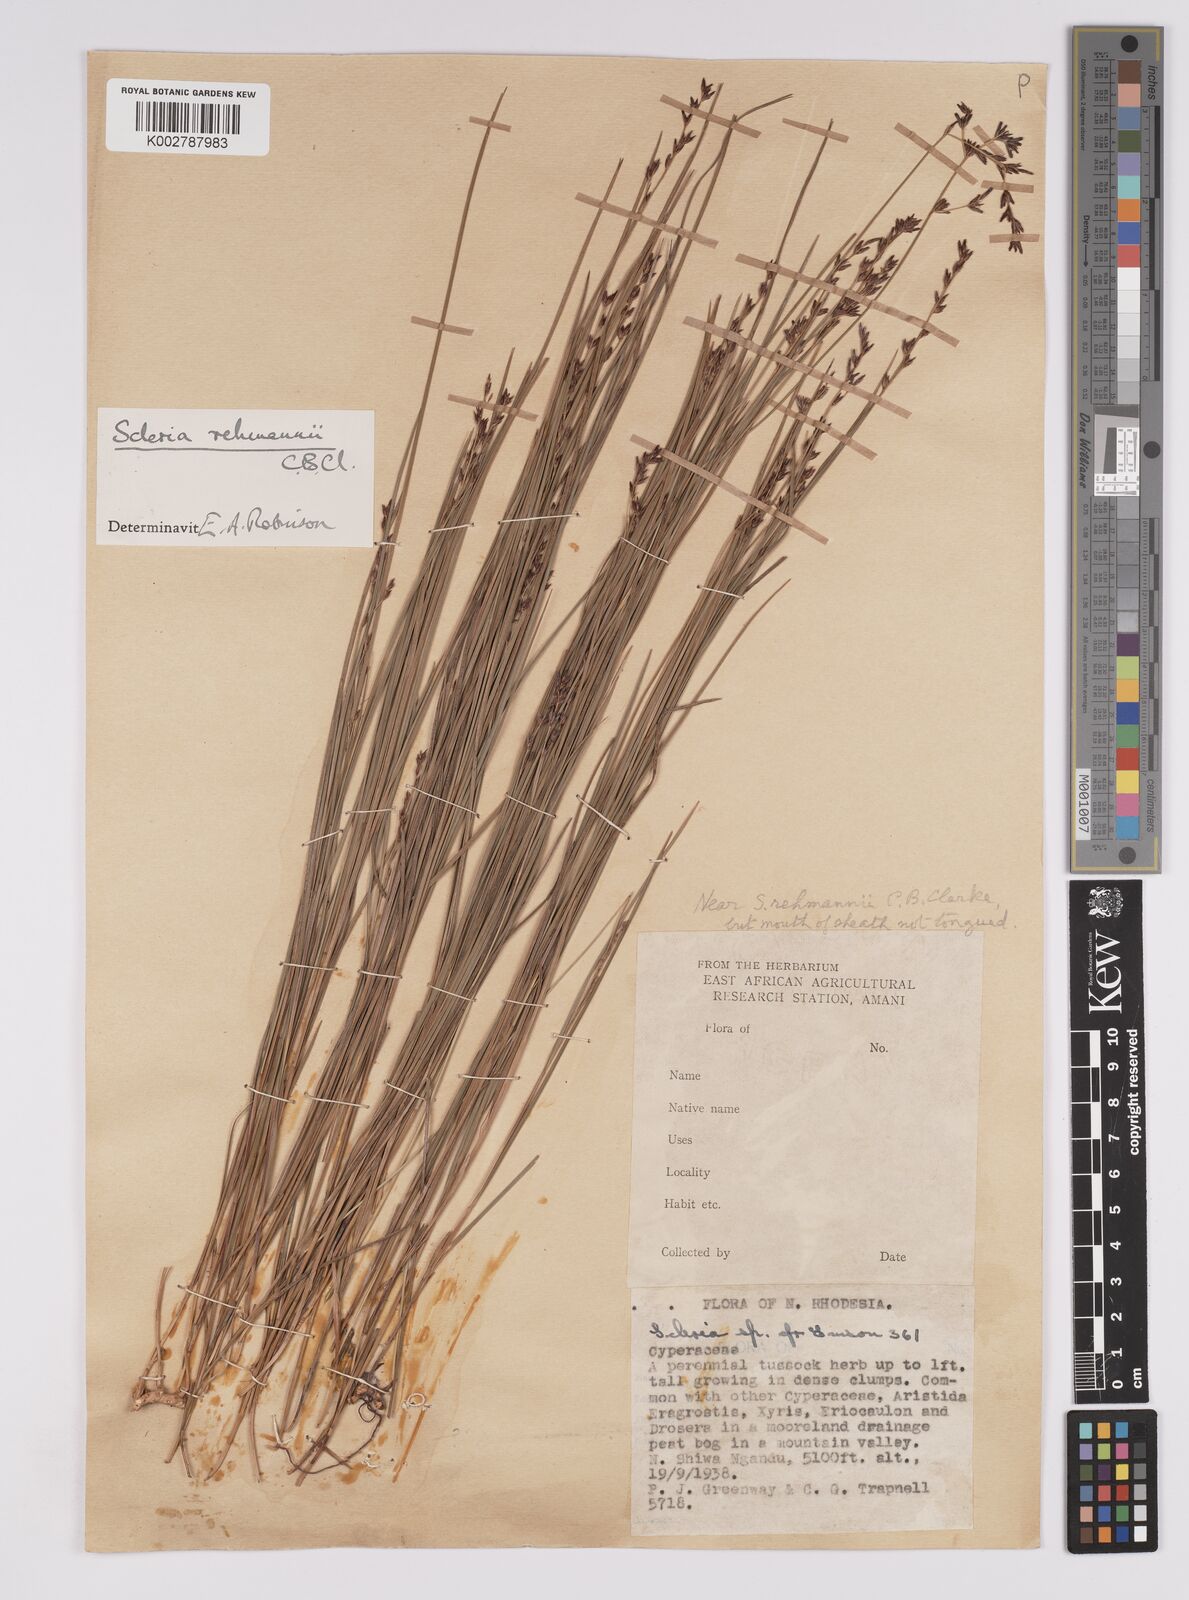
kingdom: Plantae
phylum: Tracheophyta
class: Liliopsida
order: Poales
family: Cyperaceae
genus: Scleria
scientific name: Scleria rehmannii
